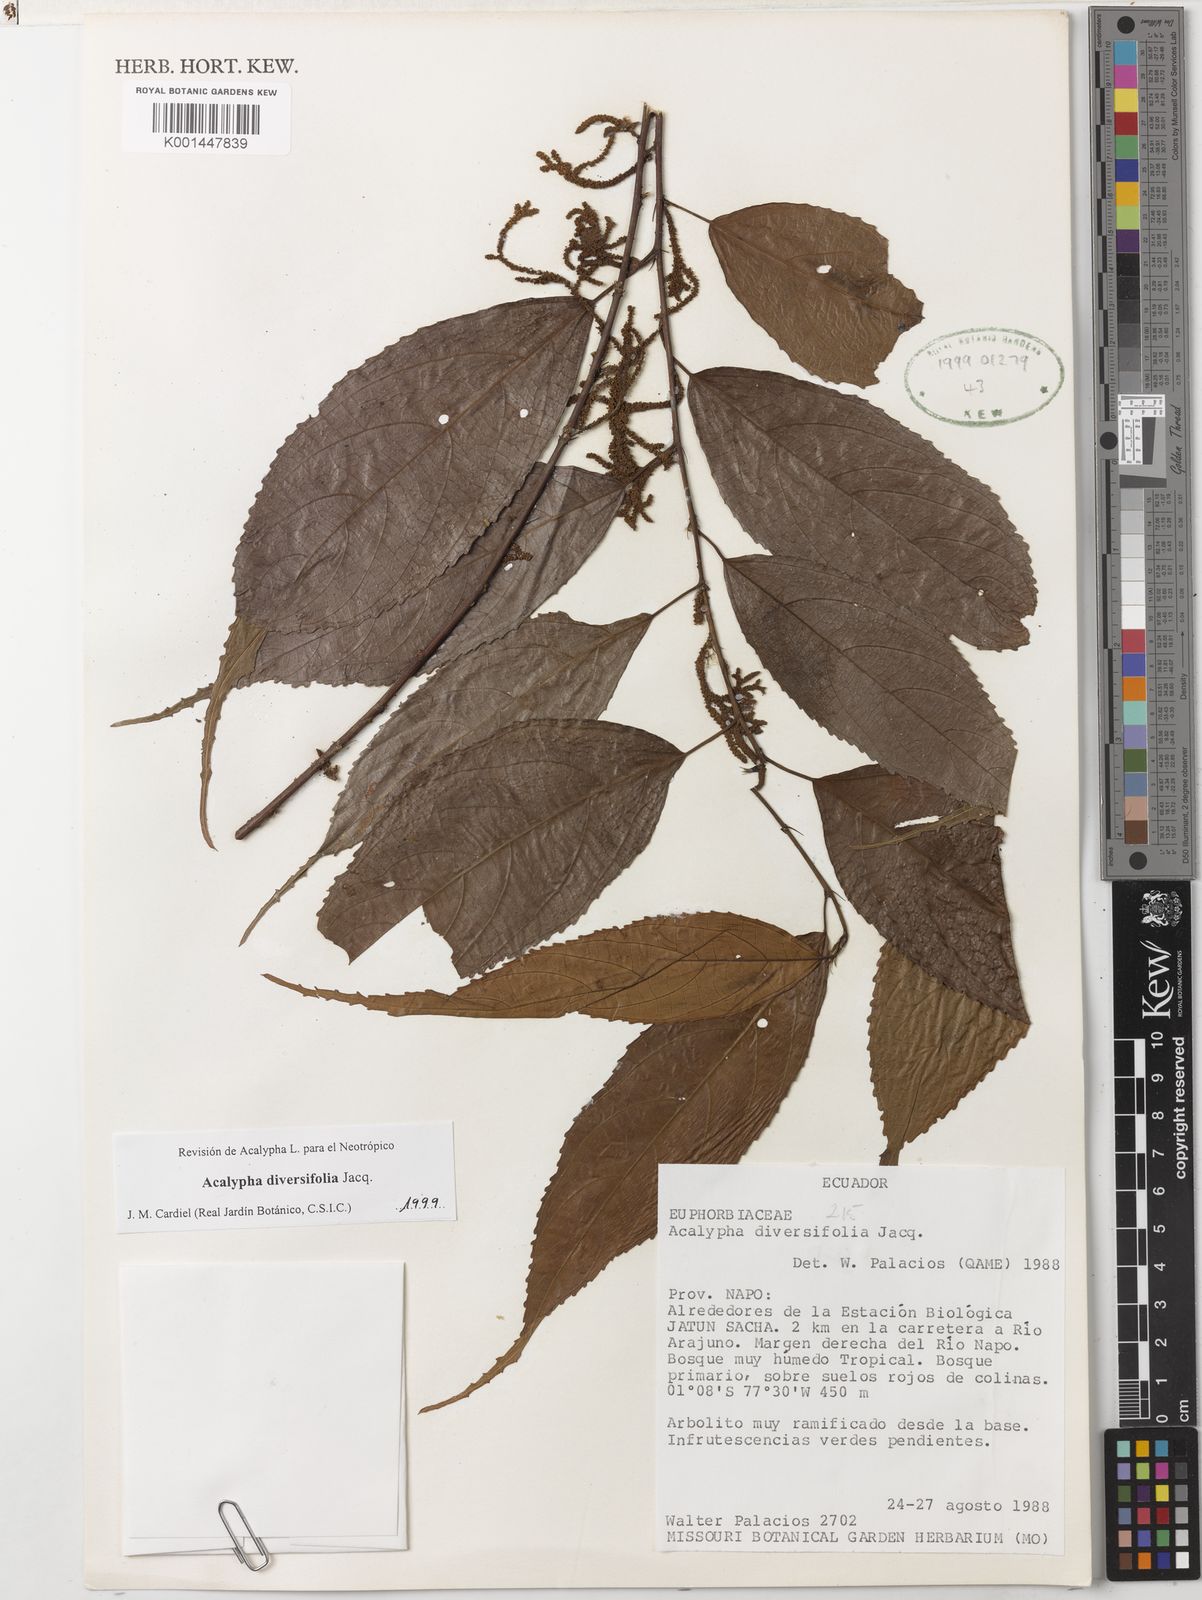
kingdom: Plantae
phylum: Tracheophyta
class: Magnoliopsida
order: Malpighiales
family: Euphorbiaceae
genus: Acalypha
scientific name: Acalypha diversifolia
